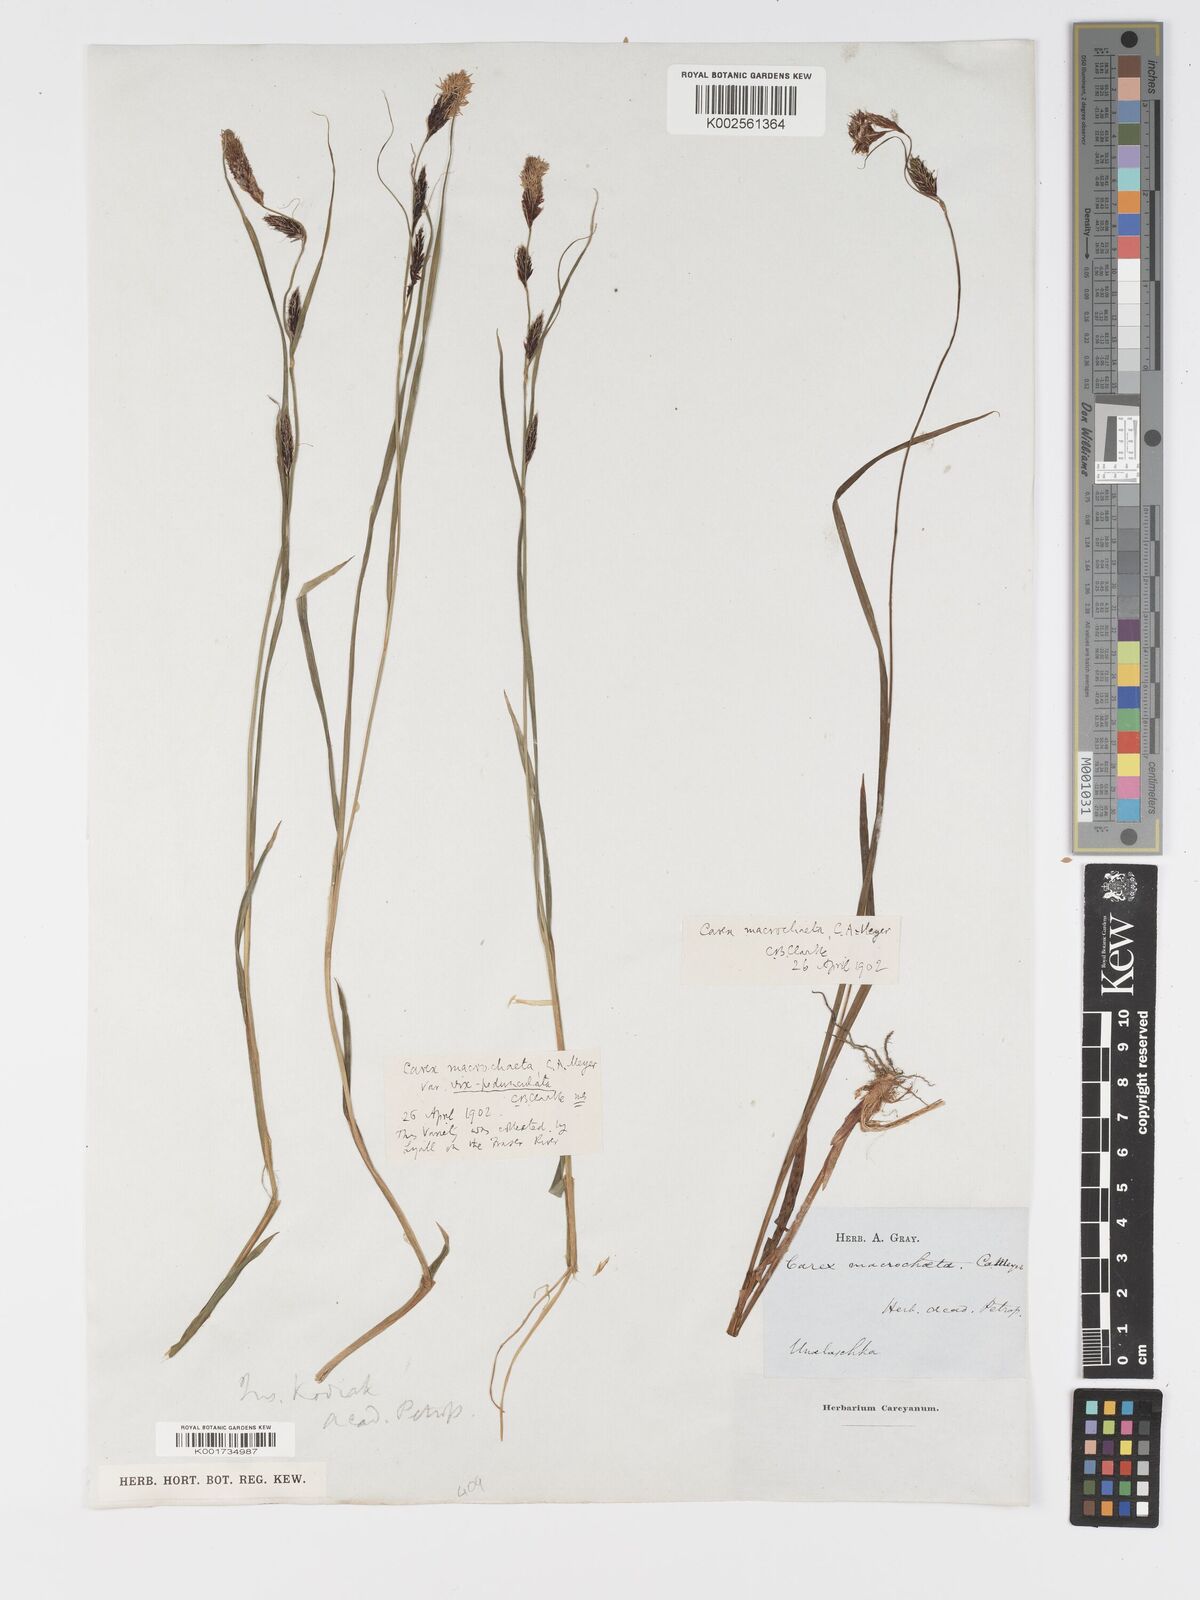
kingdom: Plantae
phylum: Tracheophyta
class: Liliopsida
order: Poales
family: Cyperaceae
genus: Carex
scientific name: Carex macrochaeta
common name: Alaska large awn sedge
